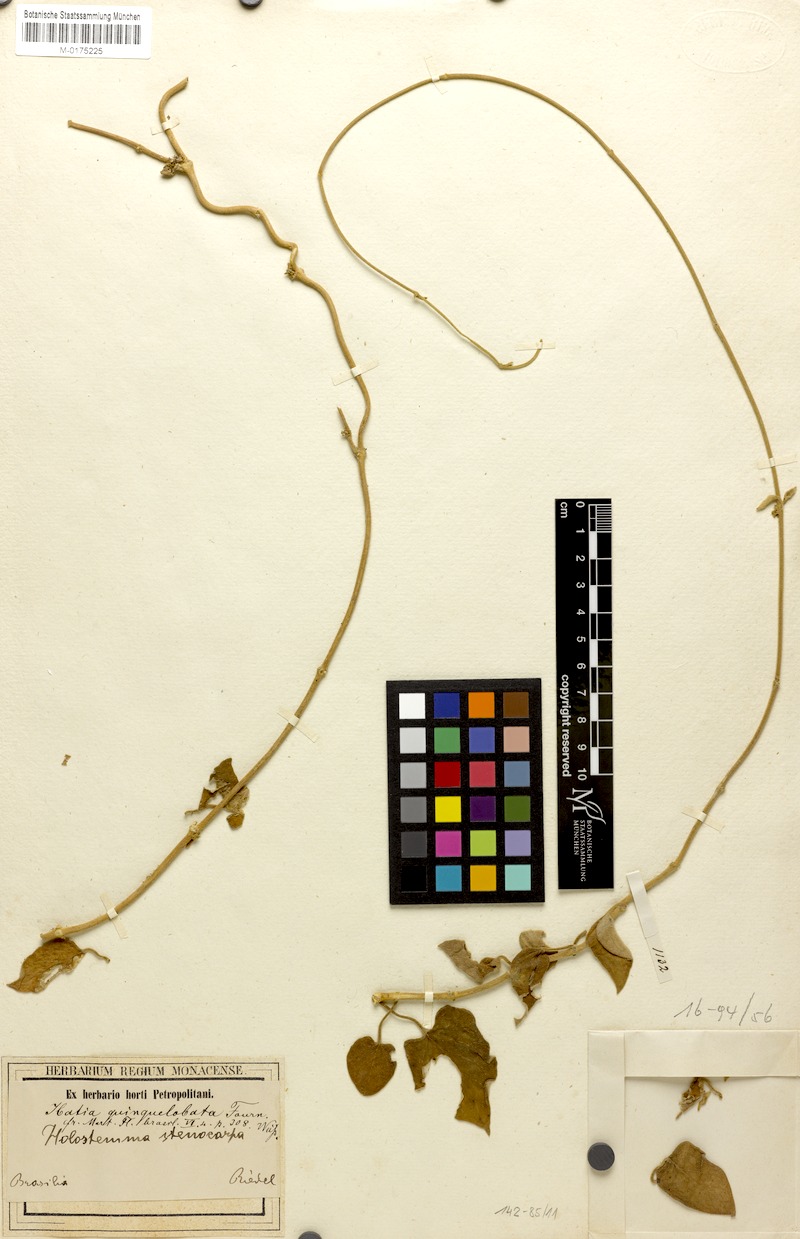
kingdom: Plantae
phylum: Tracheophyta
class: Magnoliopsida
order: Gentianales
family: Apocynaceae
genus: Ibatia
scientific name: Ibatia ganglinosa
